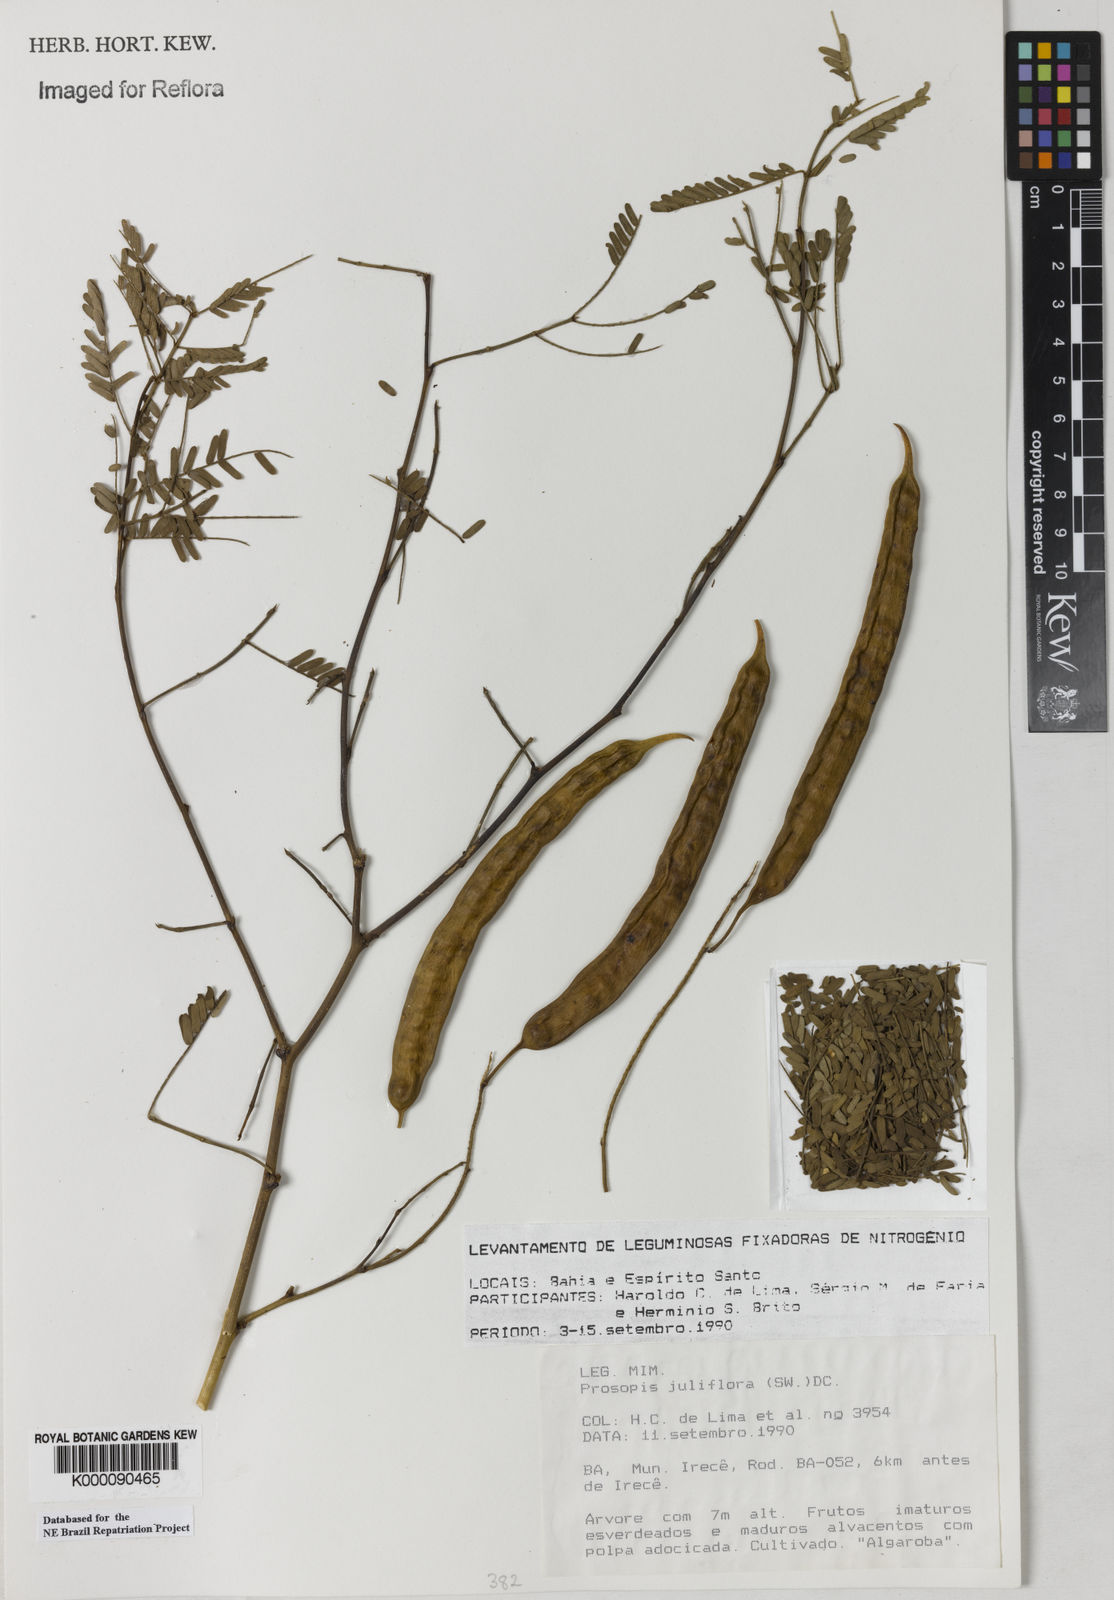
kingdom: Plantae
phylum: Tracheophyta
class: Magnoliopsida
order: Fabales
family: Fabaceae
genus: Prosopis
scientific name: Prosopis juliflora
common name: Mesquite
